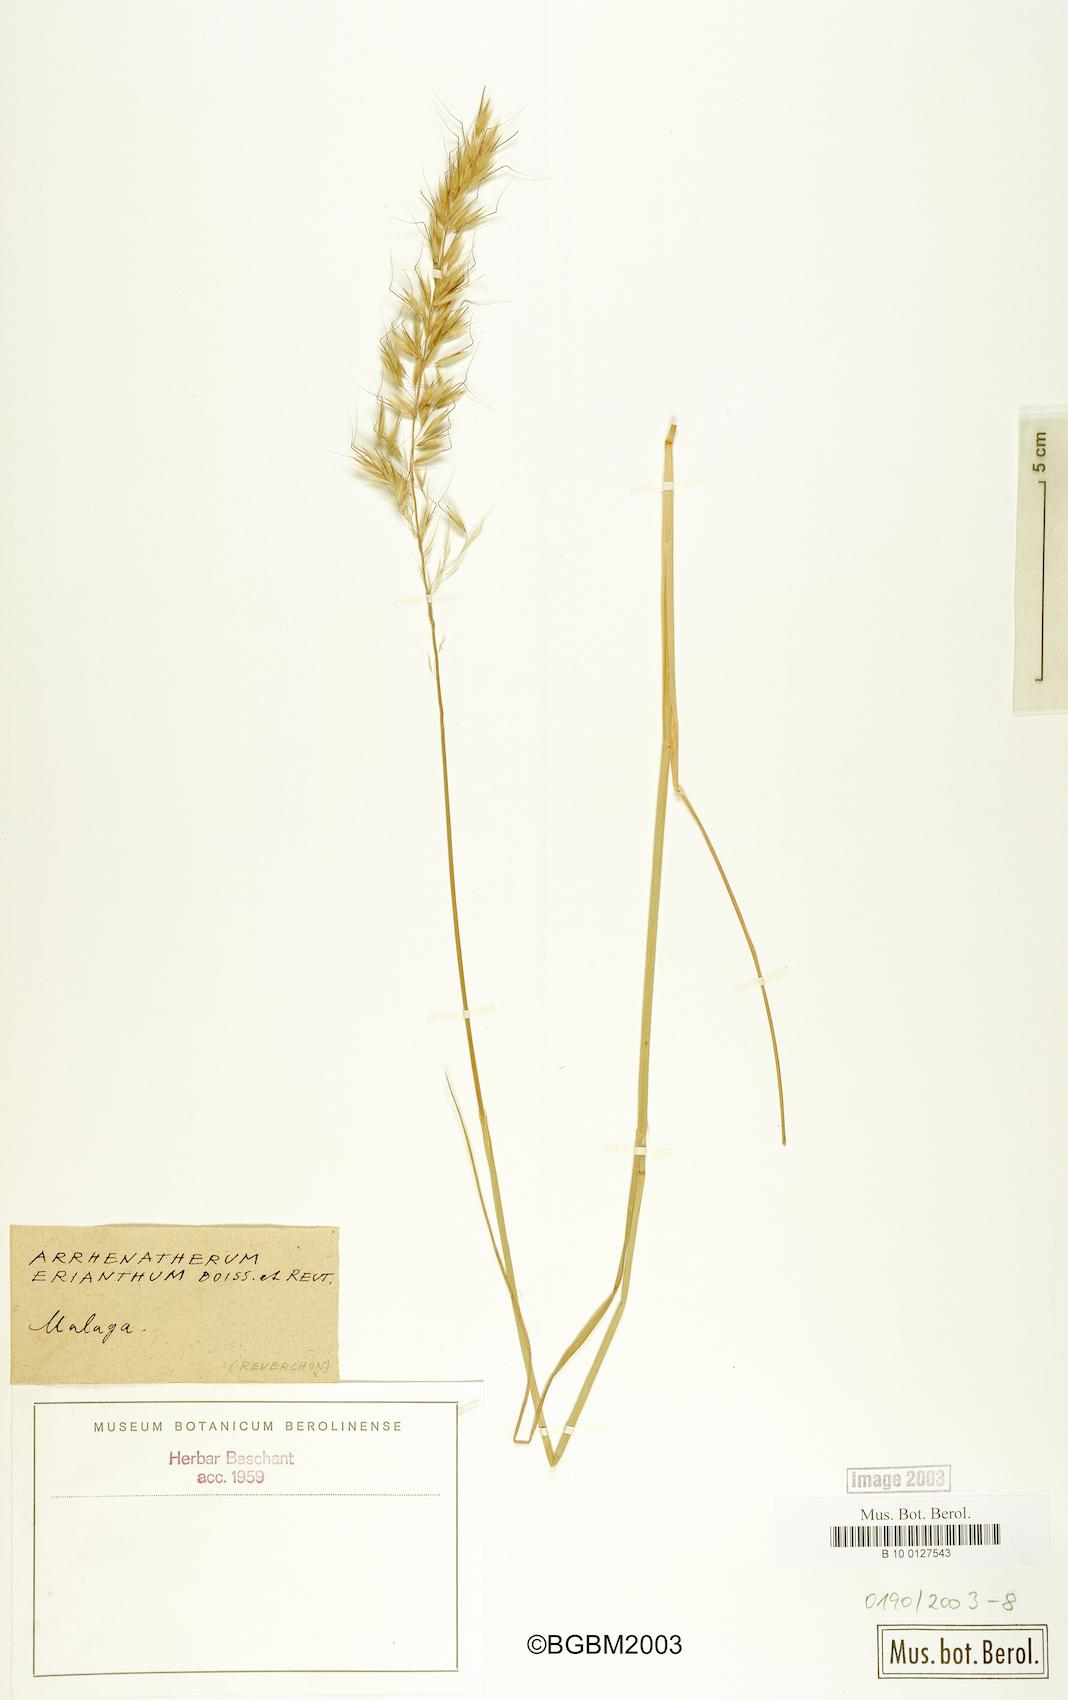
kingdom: Plantae
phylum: Tracheophyta
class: Liliopsida
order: Poales
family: Poaceae
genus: Arrhenatherum
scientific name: Arrhenatherum album
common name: Tall oat grass
